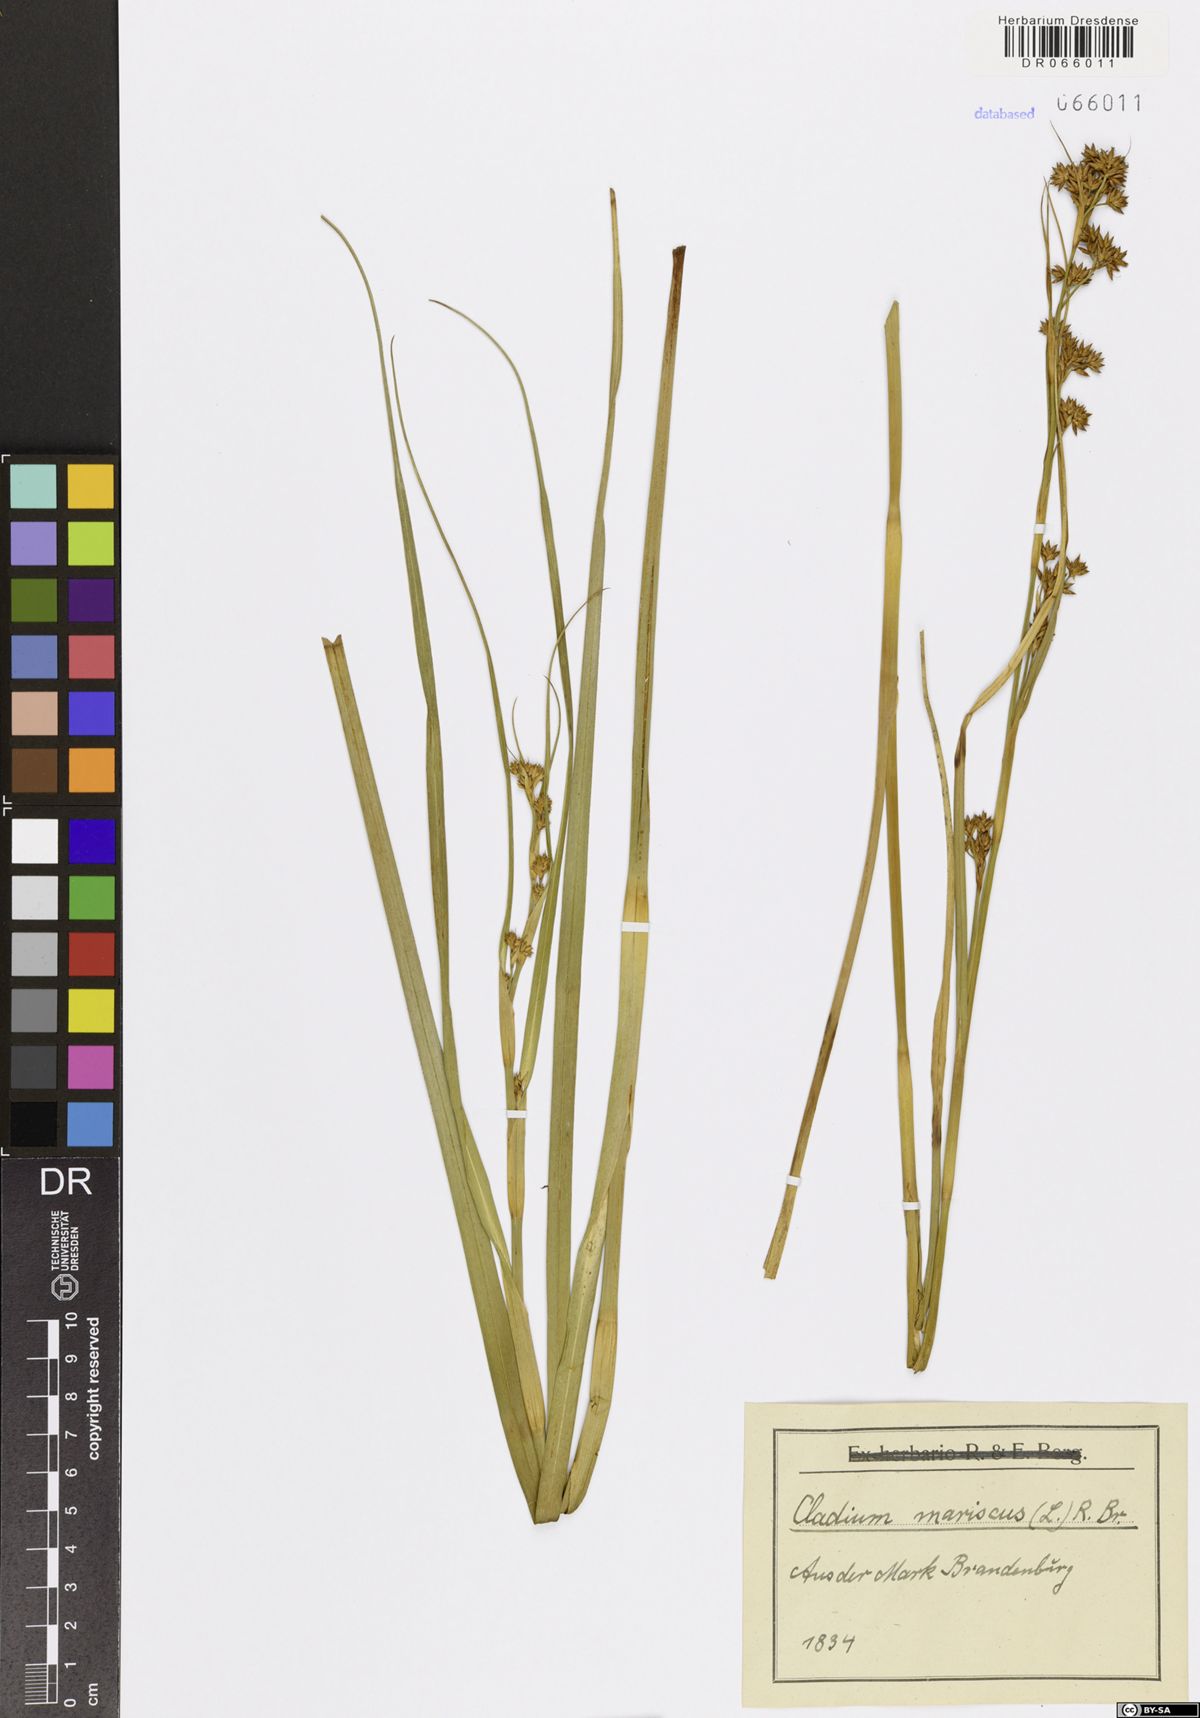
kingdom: Plantae
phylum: Tracheophyta
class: Liliopsida
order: Poales
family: Cyperaceae
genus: Cladium
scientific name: Cladium mariscus
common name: Great fen-sedge
